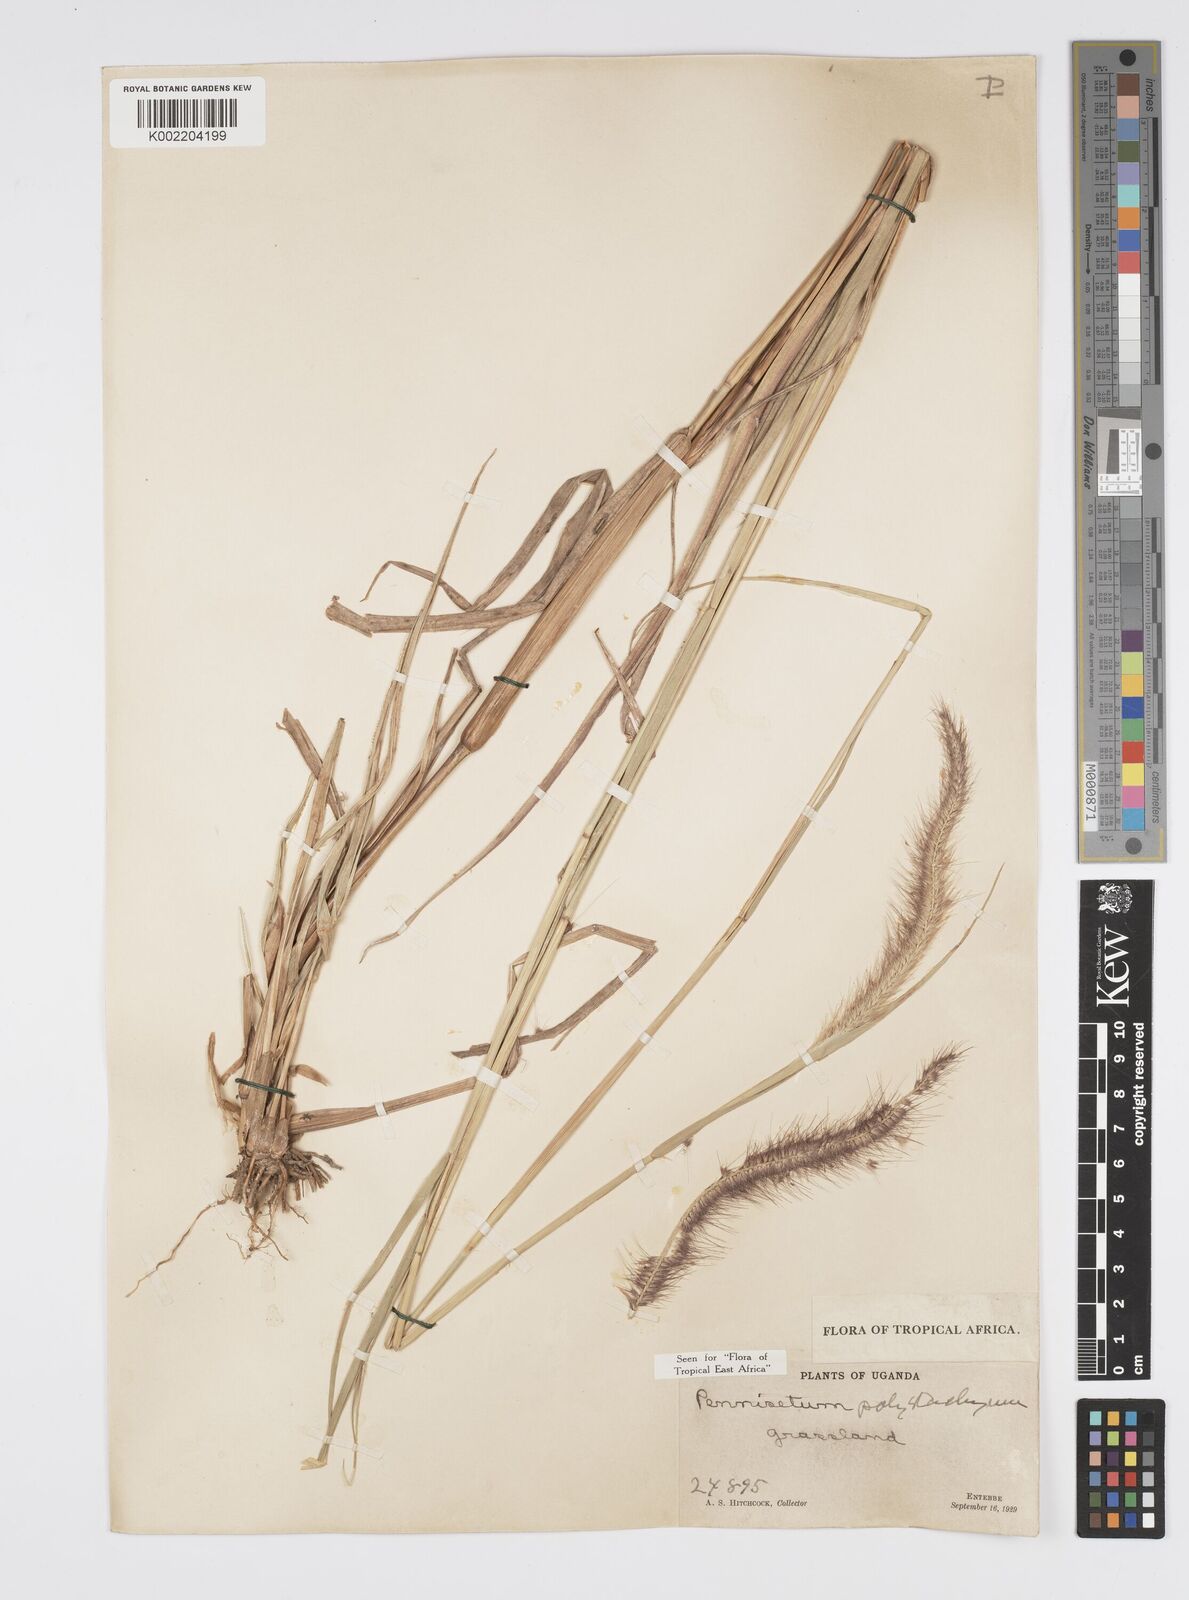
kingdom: Plantae
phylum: Tracheophyta
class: Liliopsida
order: Poales
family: Poaceae
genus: Setaria
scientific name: Setaria parviflora
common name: Knotroot bristle-grass
